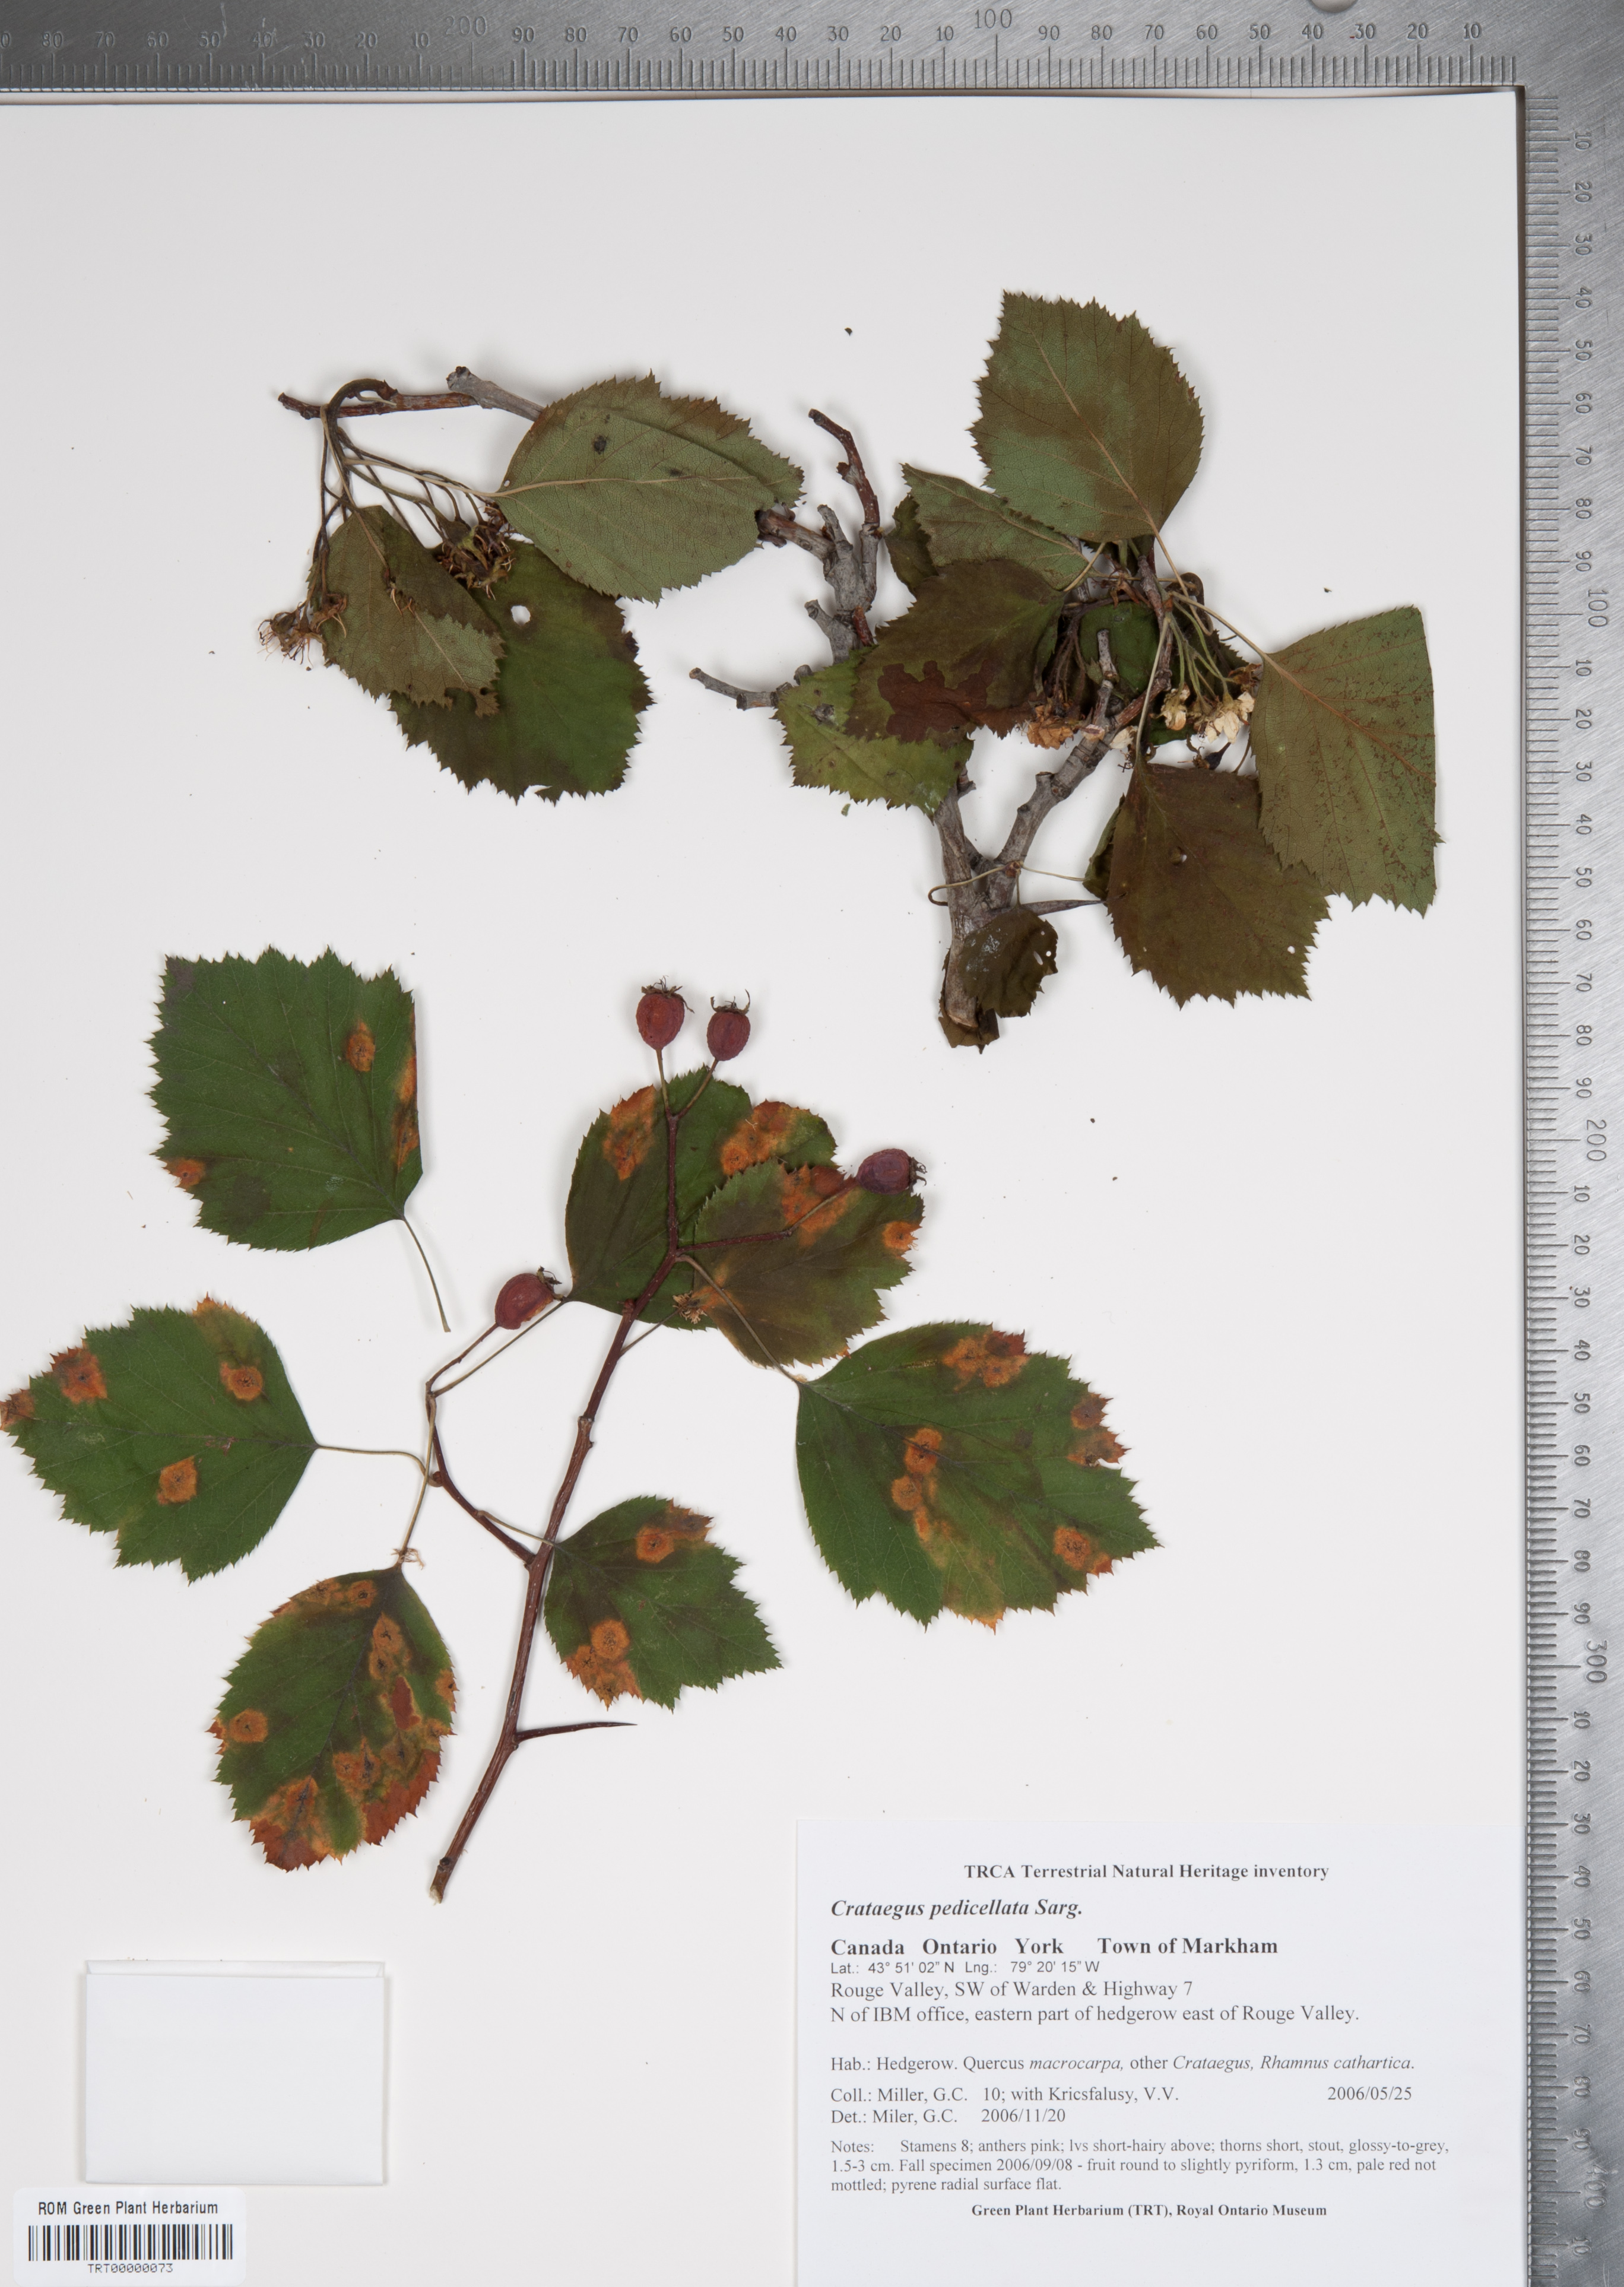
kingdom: Plantae
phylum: Tracheophyta
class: Magnoliopsida
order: Rosales
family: Rosaceae
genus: Crataegus
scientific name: Crataegus coccinea
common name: Scarlet hawthorn
